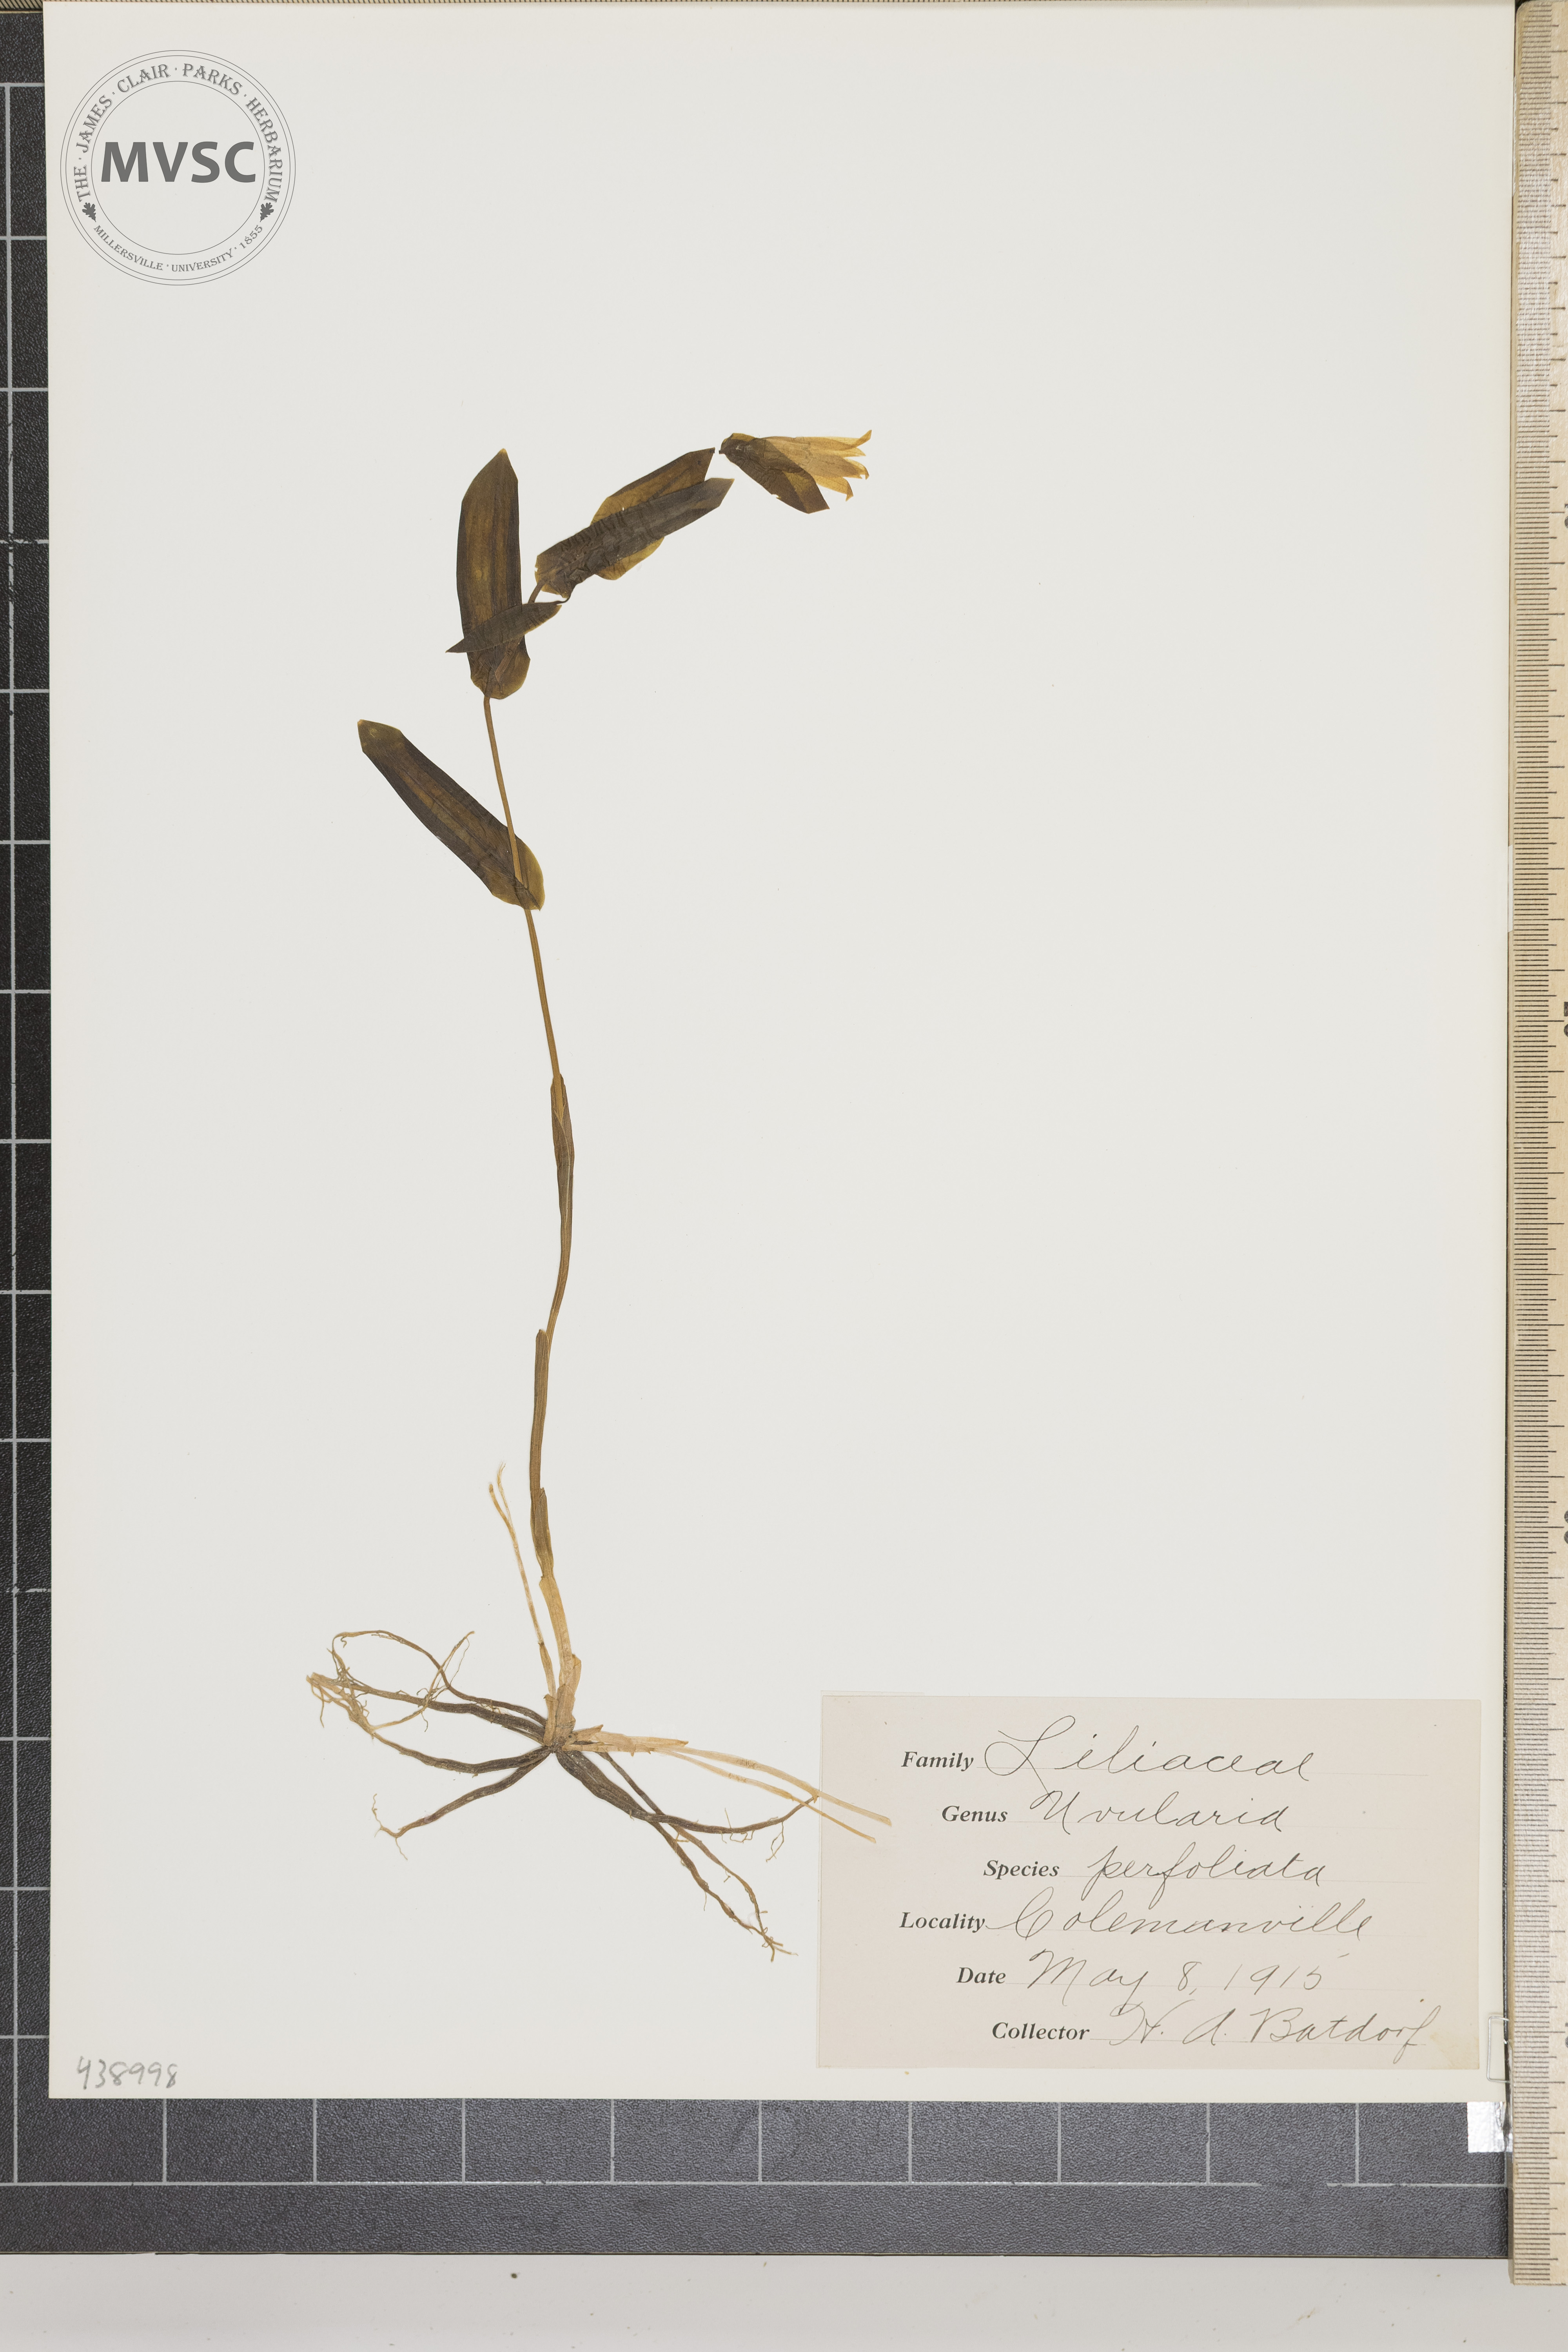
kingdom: Plantae
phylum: Tracheophyta
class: Liliopsida
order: Liliales
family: Colchicaceae
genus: Uvularia
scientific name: Uvularia perfoliata
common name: Perfoliate bellwort
